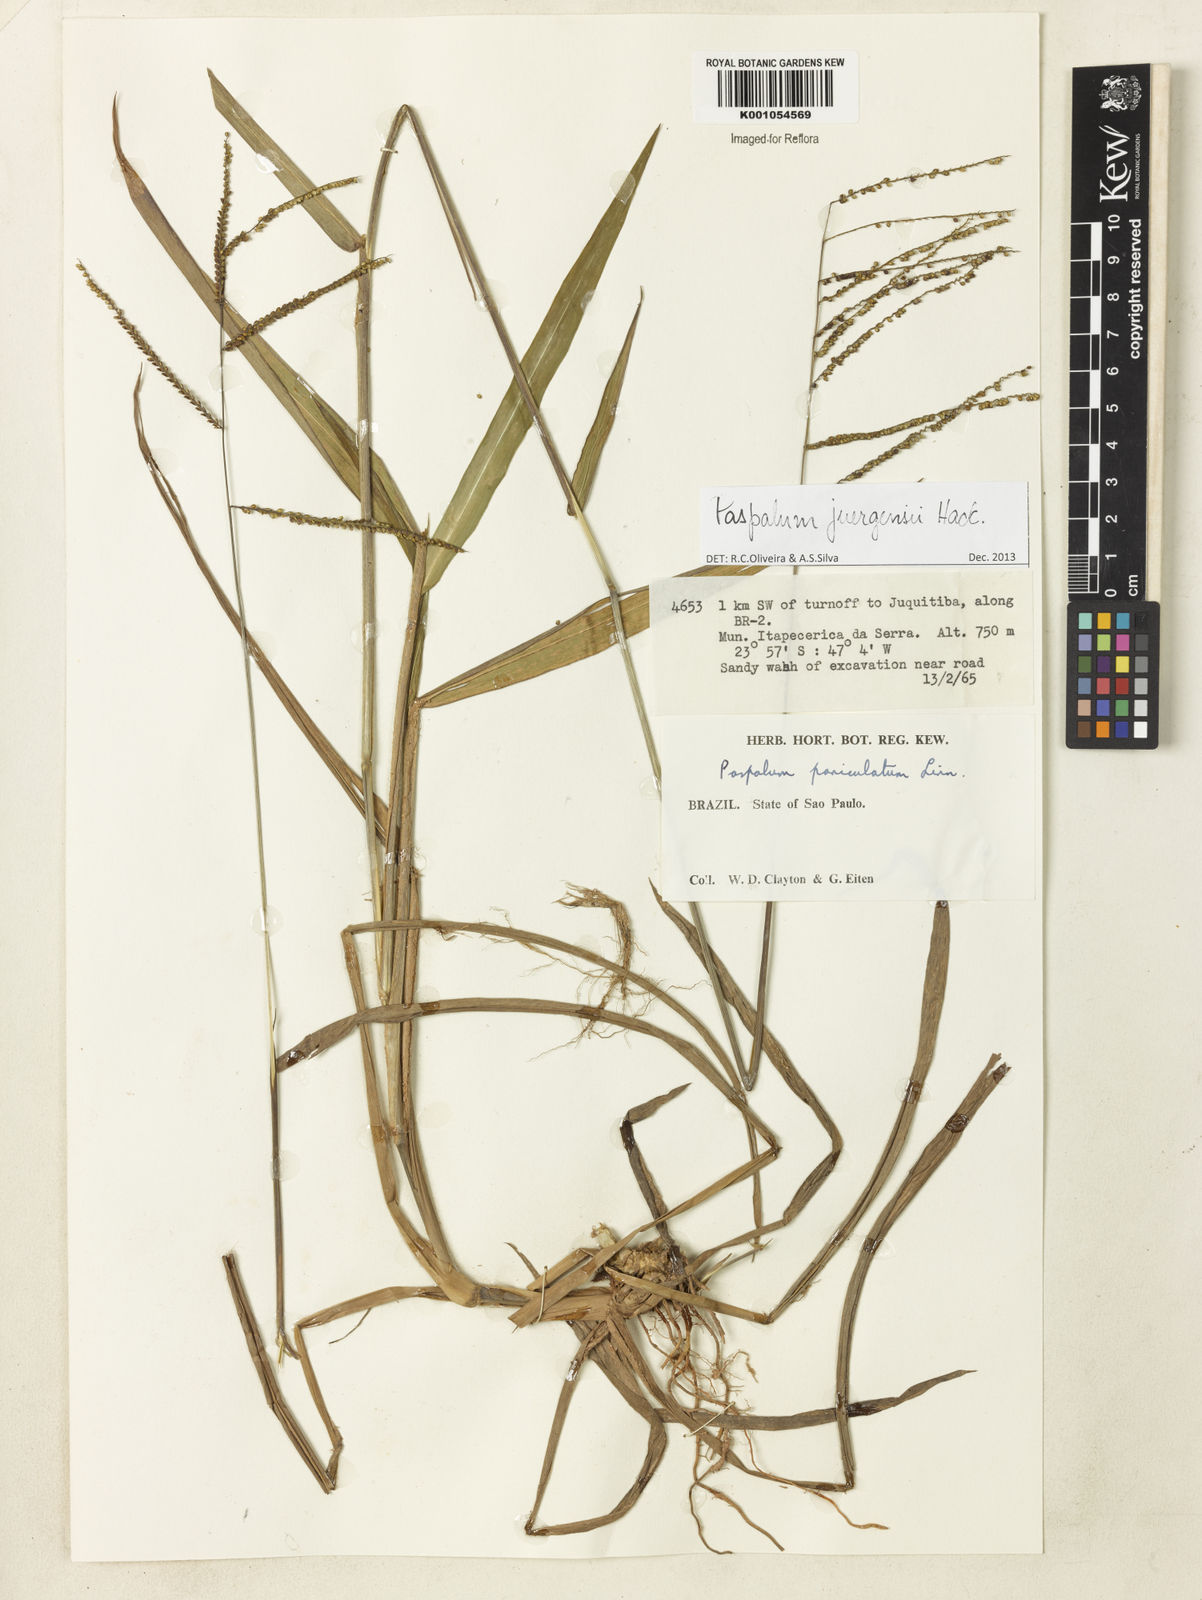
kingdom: Plantae
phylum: Tracheophyta
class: Liliopsida
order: Poales
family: Poaceae
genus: Paspalum
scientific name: Paspalum juergensii
